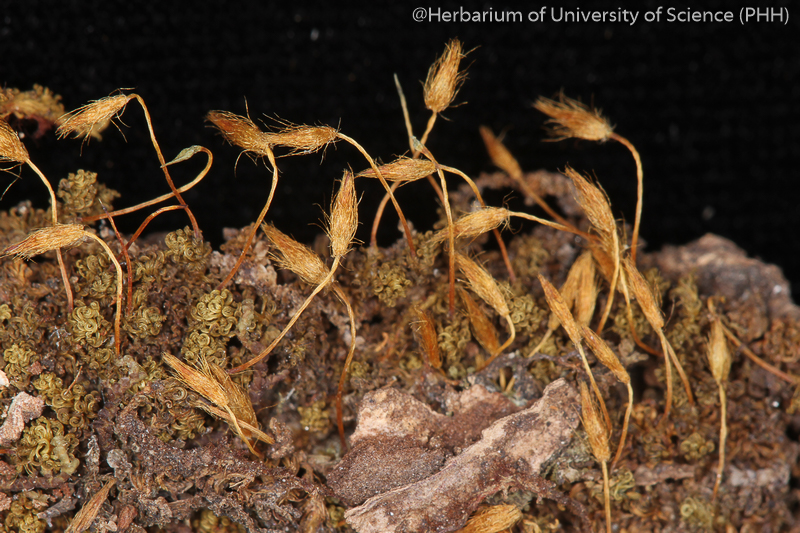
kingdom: Plantae
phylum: Bryophyta
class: Bryopsida
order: Orthotrichales
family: Orthotrichaceae
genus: Macromitrium
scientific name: Macromitrium japonicum
